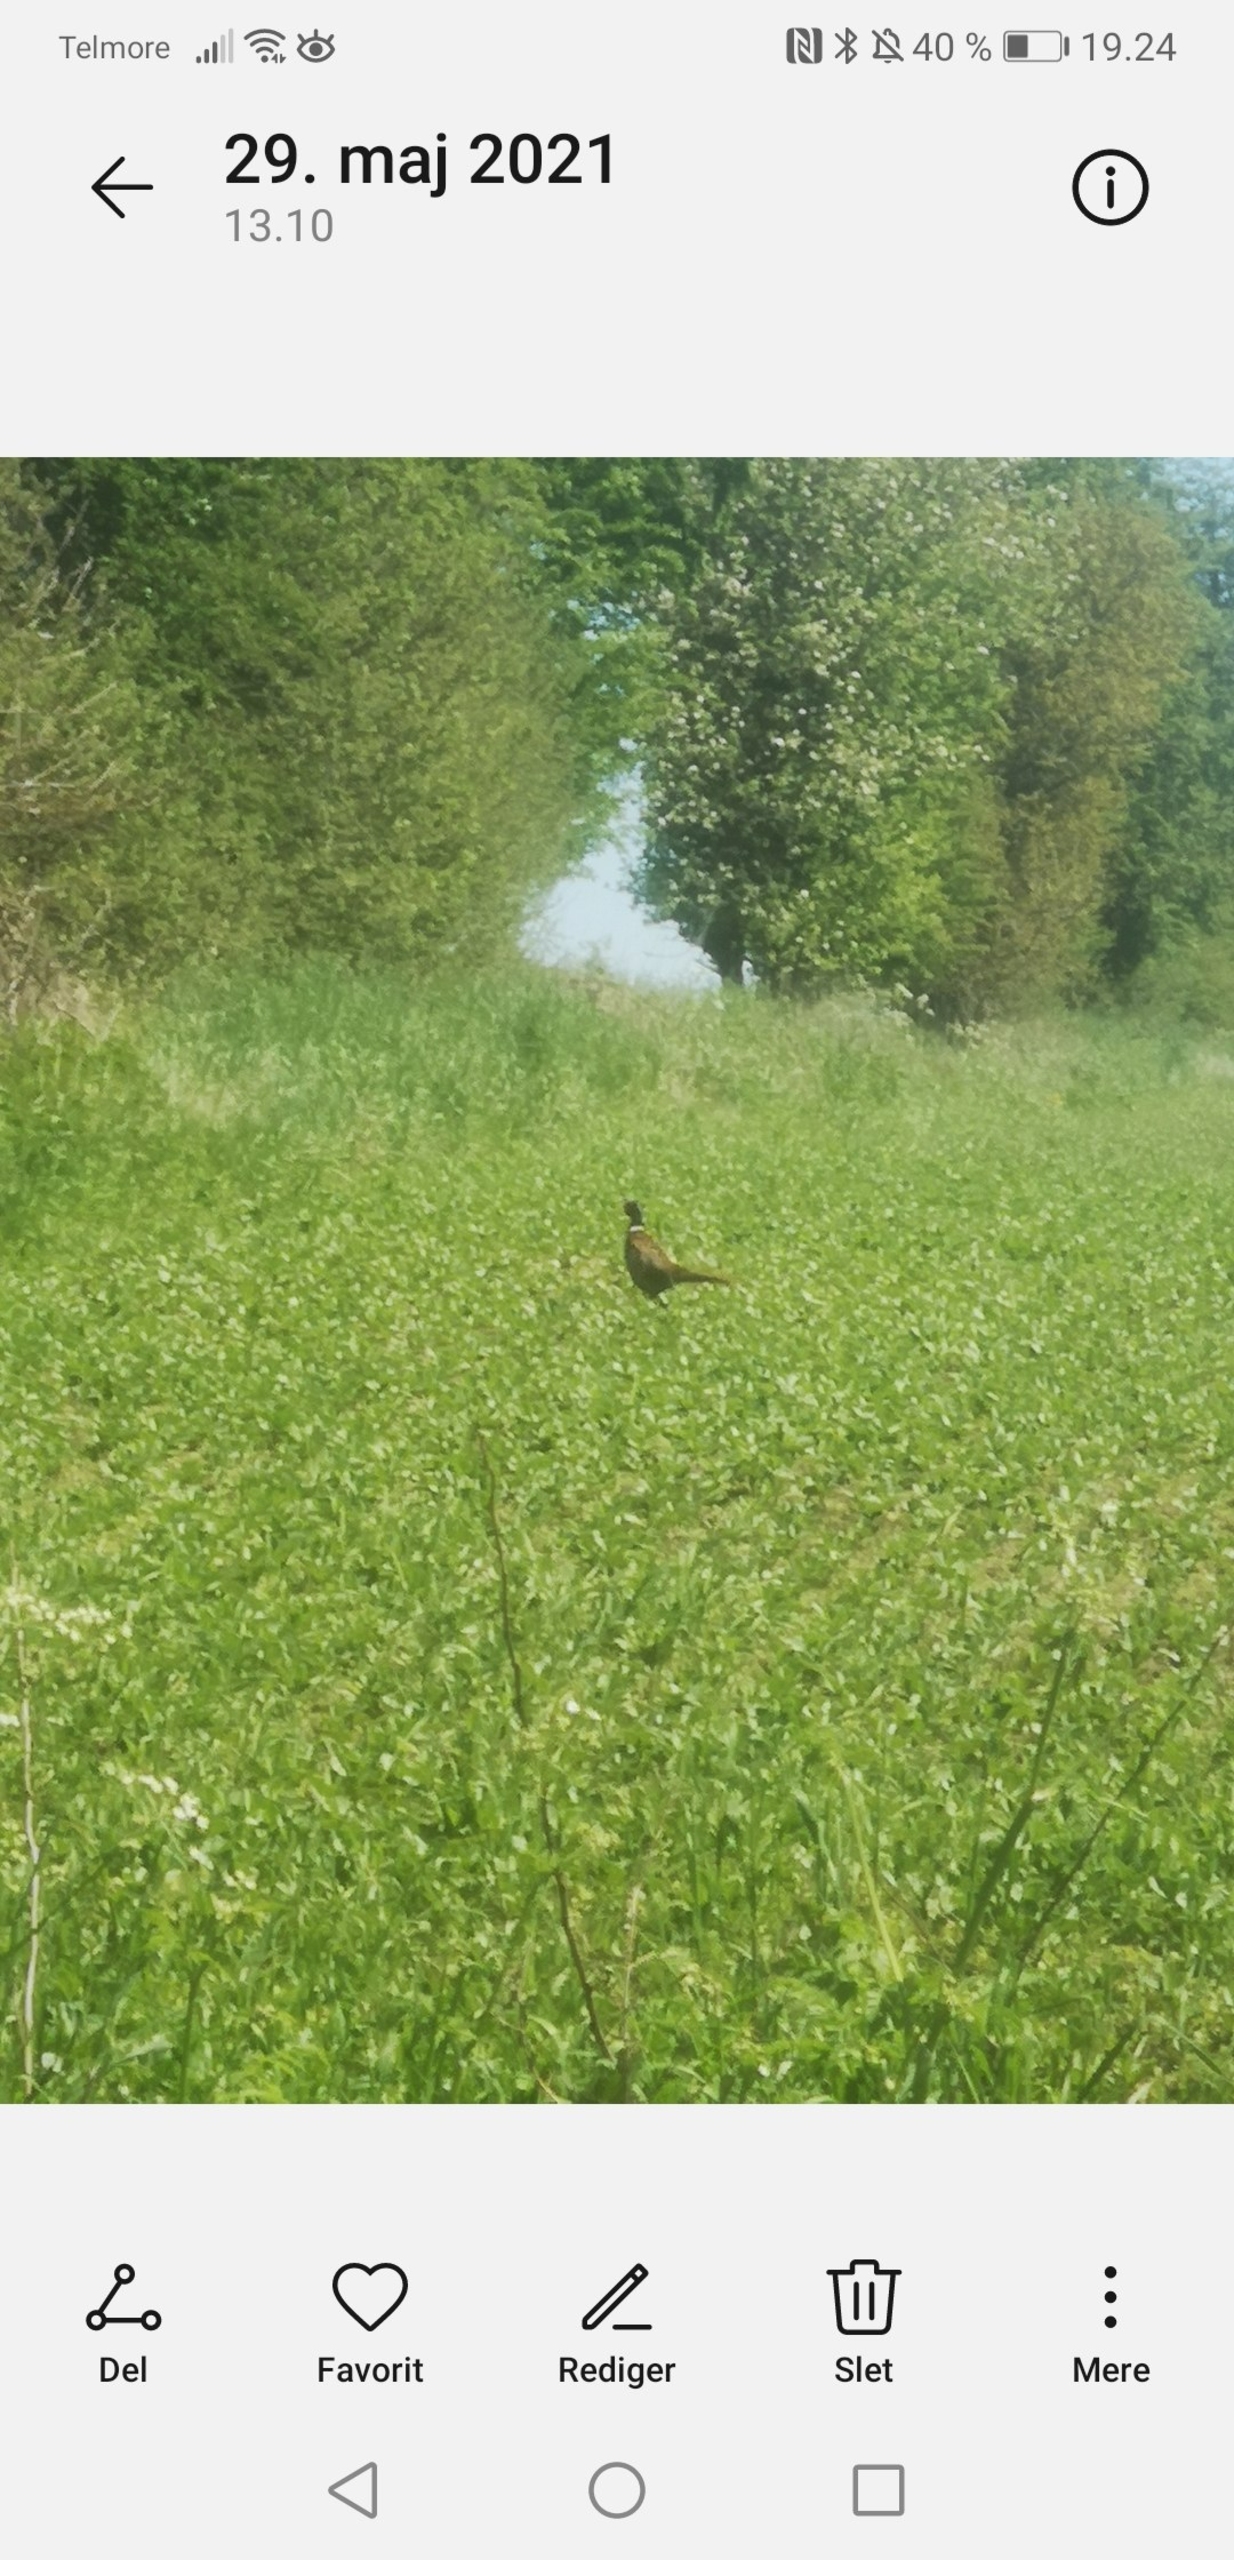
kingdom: Animalia
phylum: Chordata
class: Aves
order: Galliformes
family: Phasianidae
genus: Phasianus
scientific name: Phasianus colchicus
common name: Fasan
